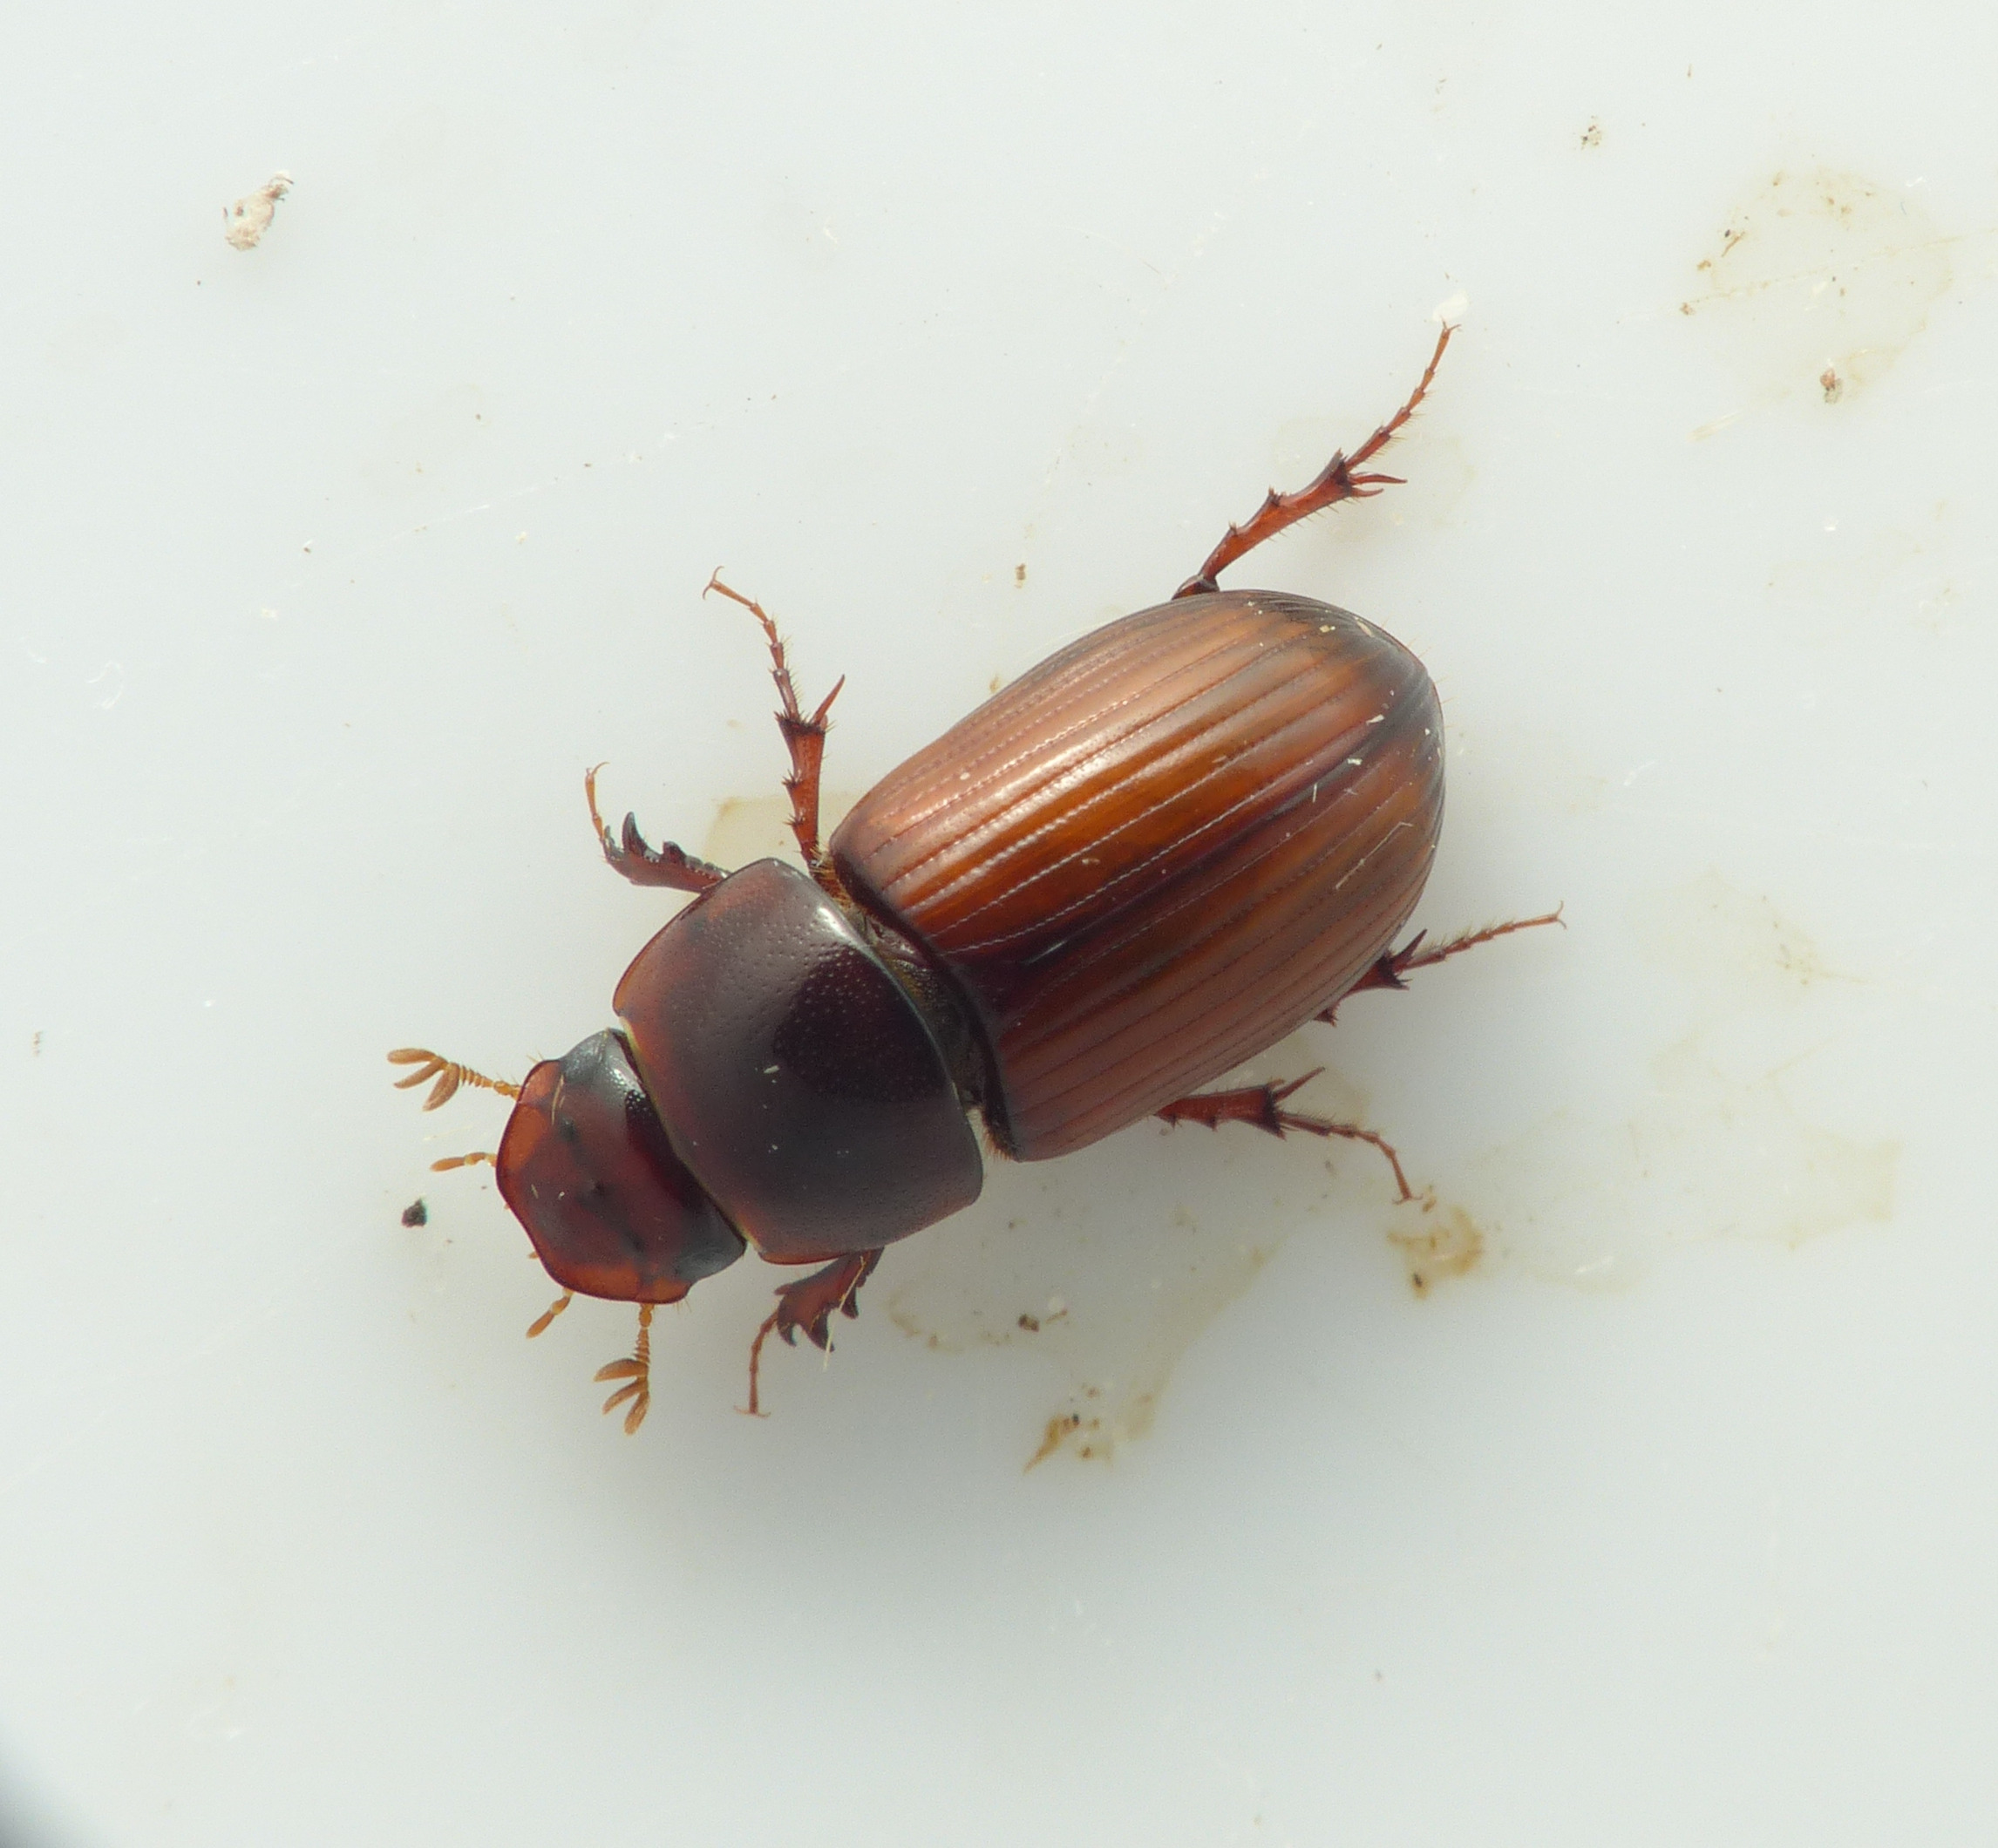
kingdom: Animalia
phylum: Arthropoda
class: Insecta
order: Coleoptera
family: Scarabaeidae
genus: Bodilopsis
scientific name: Bodilopsis rufus
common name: Mahognibrun møgbille
